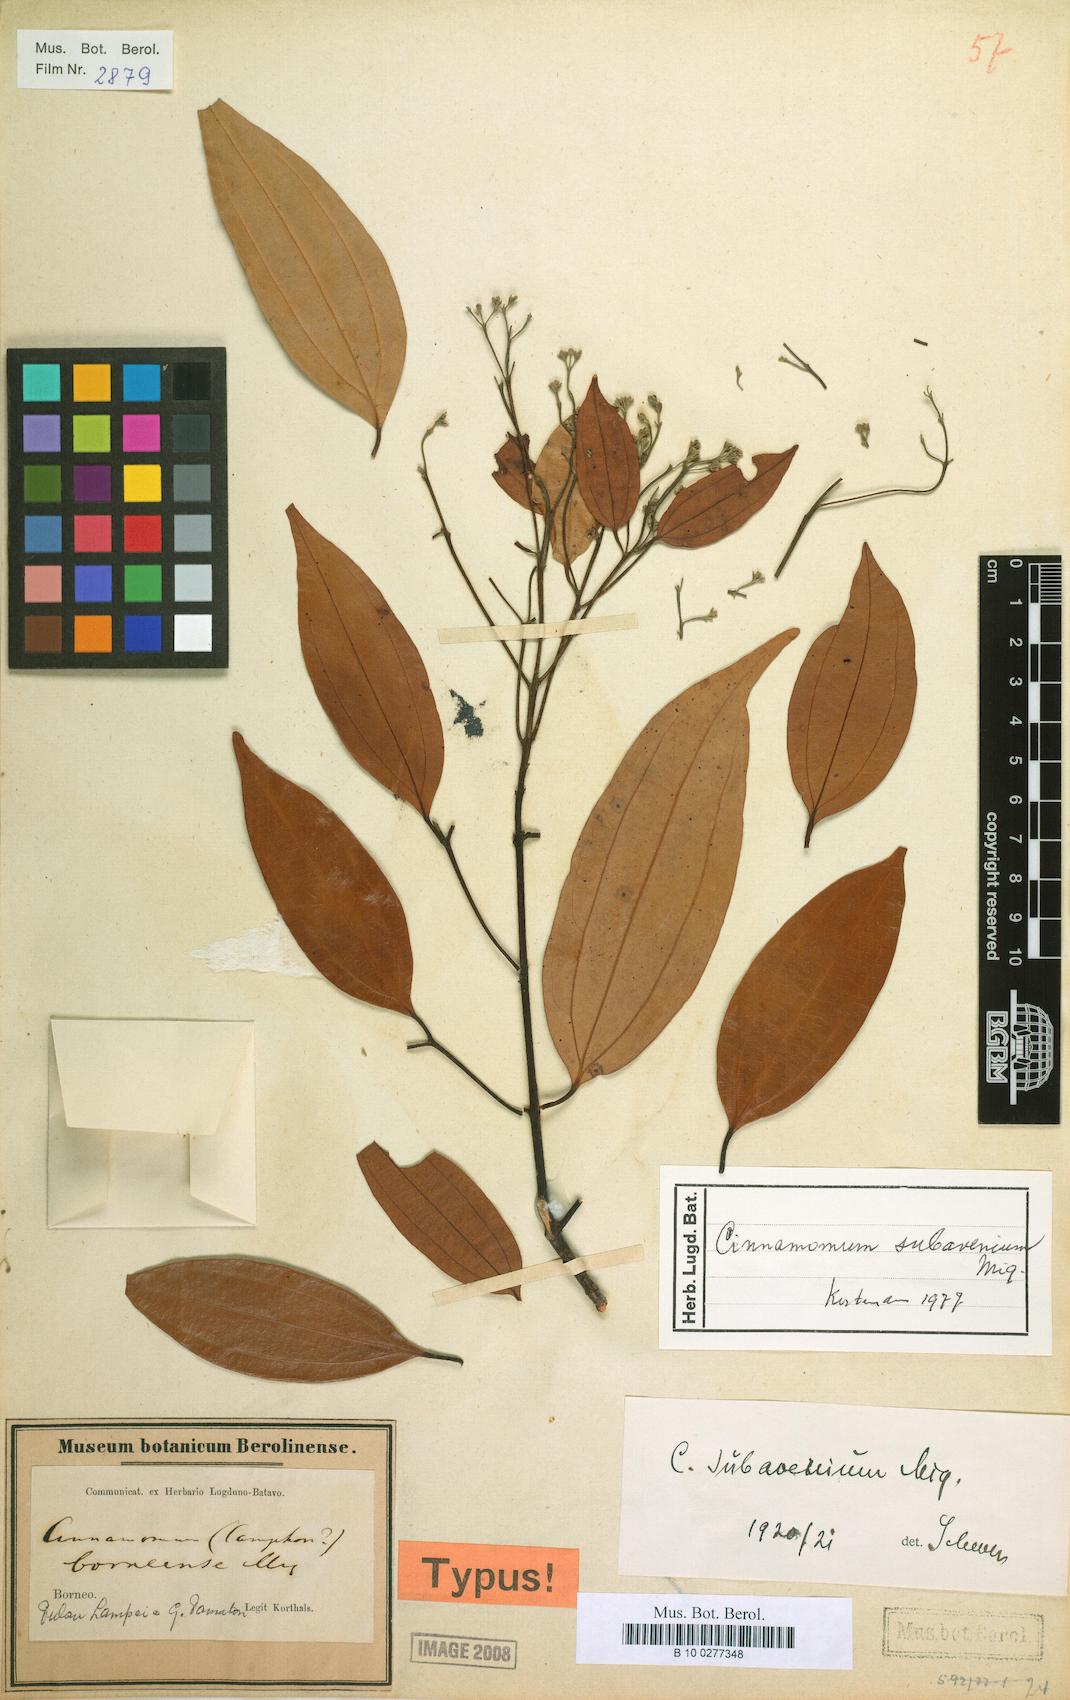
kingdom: Plantae
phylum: Tracheophyta
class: Magnoliopsida
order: Laurales
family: Lauraceae
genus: Cinnamomum
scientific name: Cinnamomum subavenium
